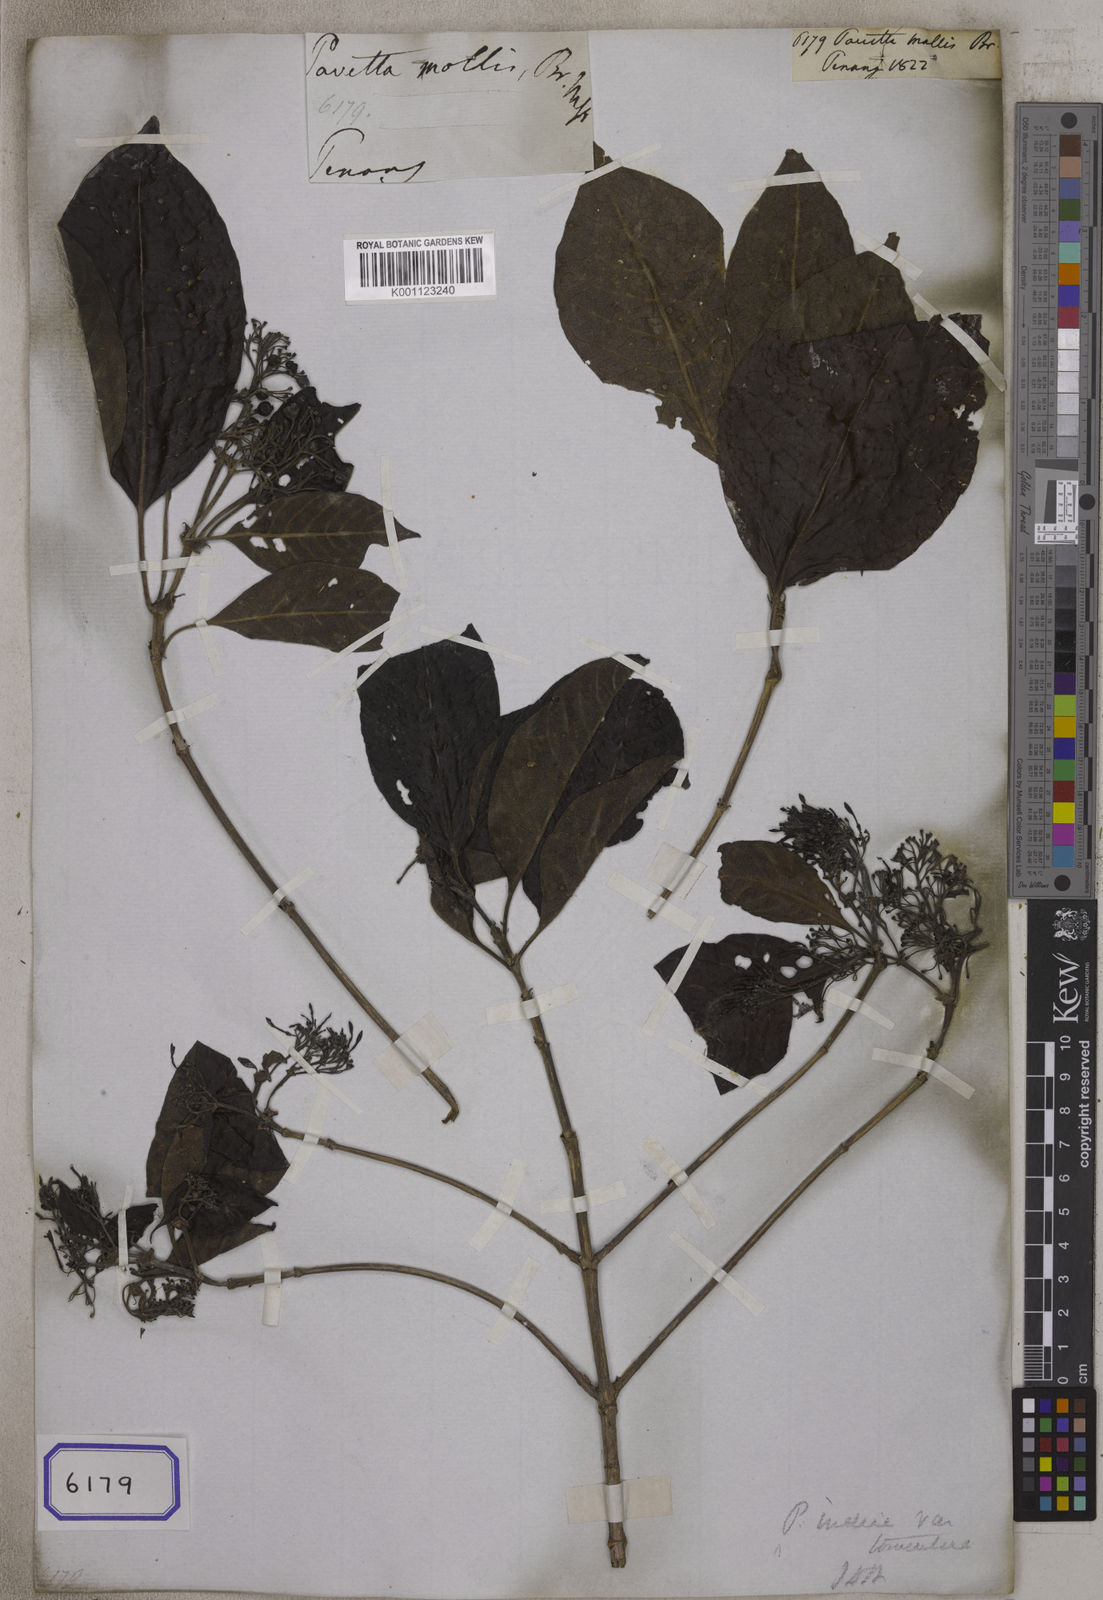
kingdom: Plantae
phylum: Tracheophyta
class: Magnoliopsida
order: Gentianales
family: Rubiaceae
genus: Pavetta
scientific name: Pavetta
